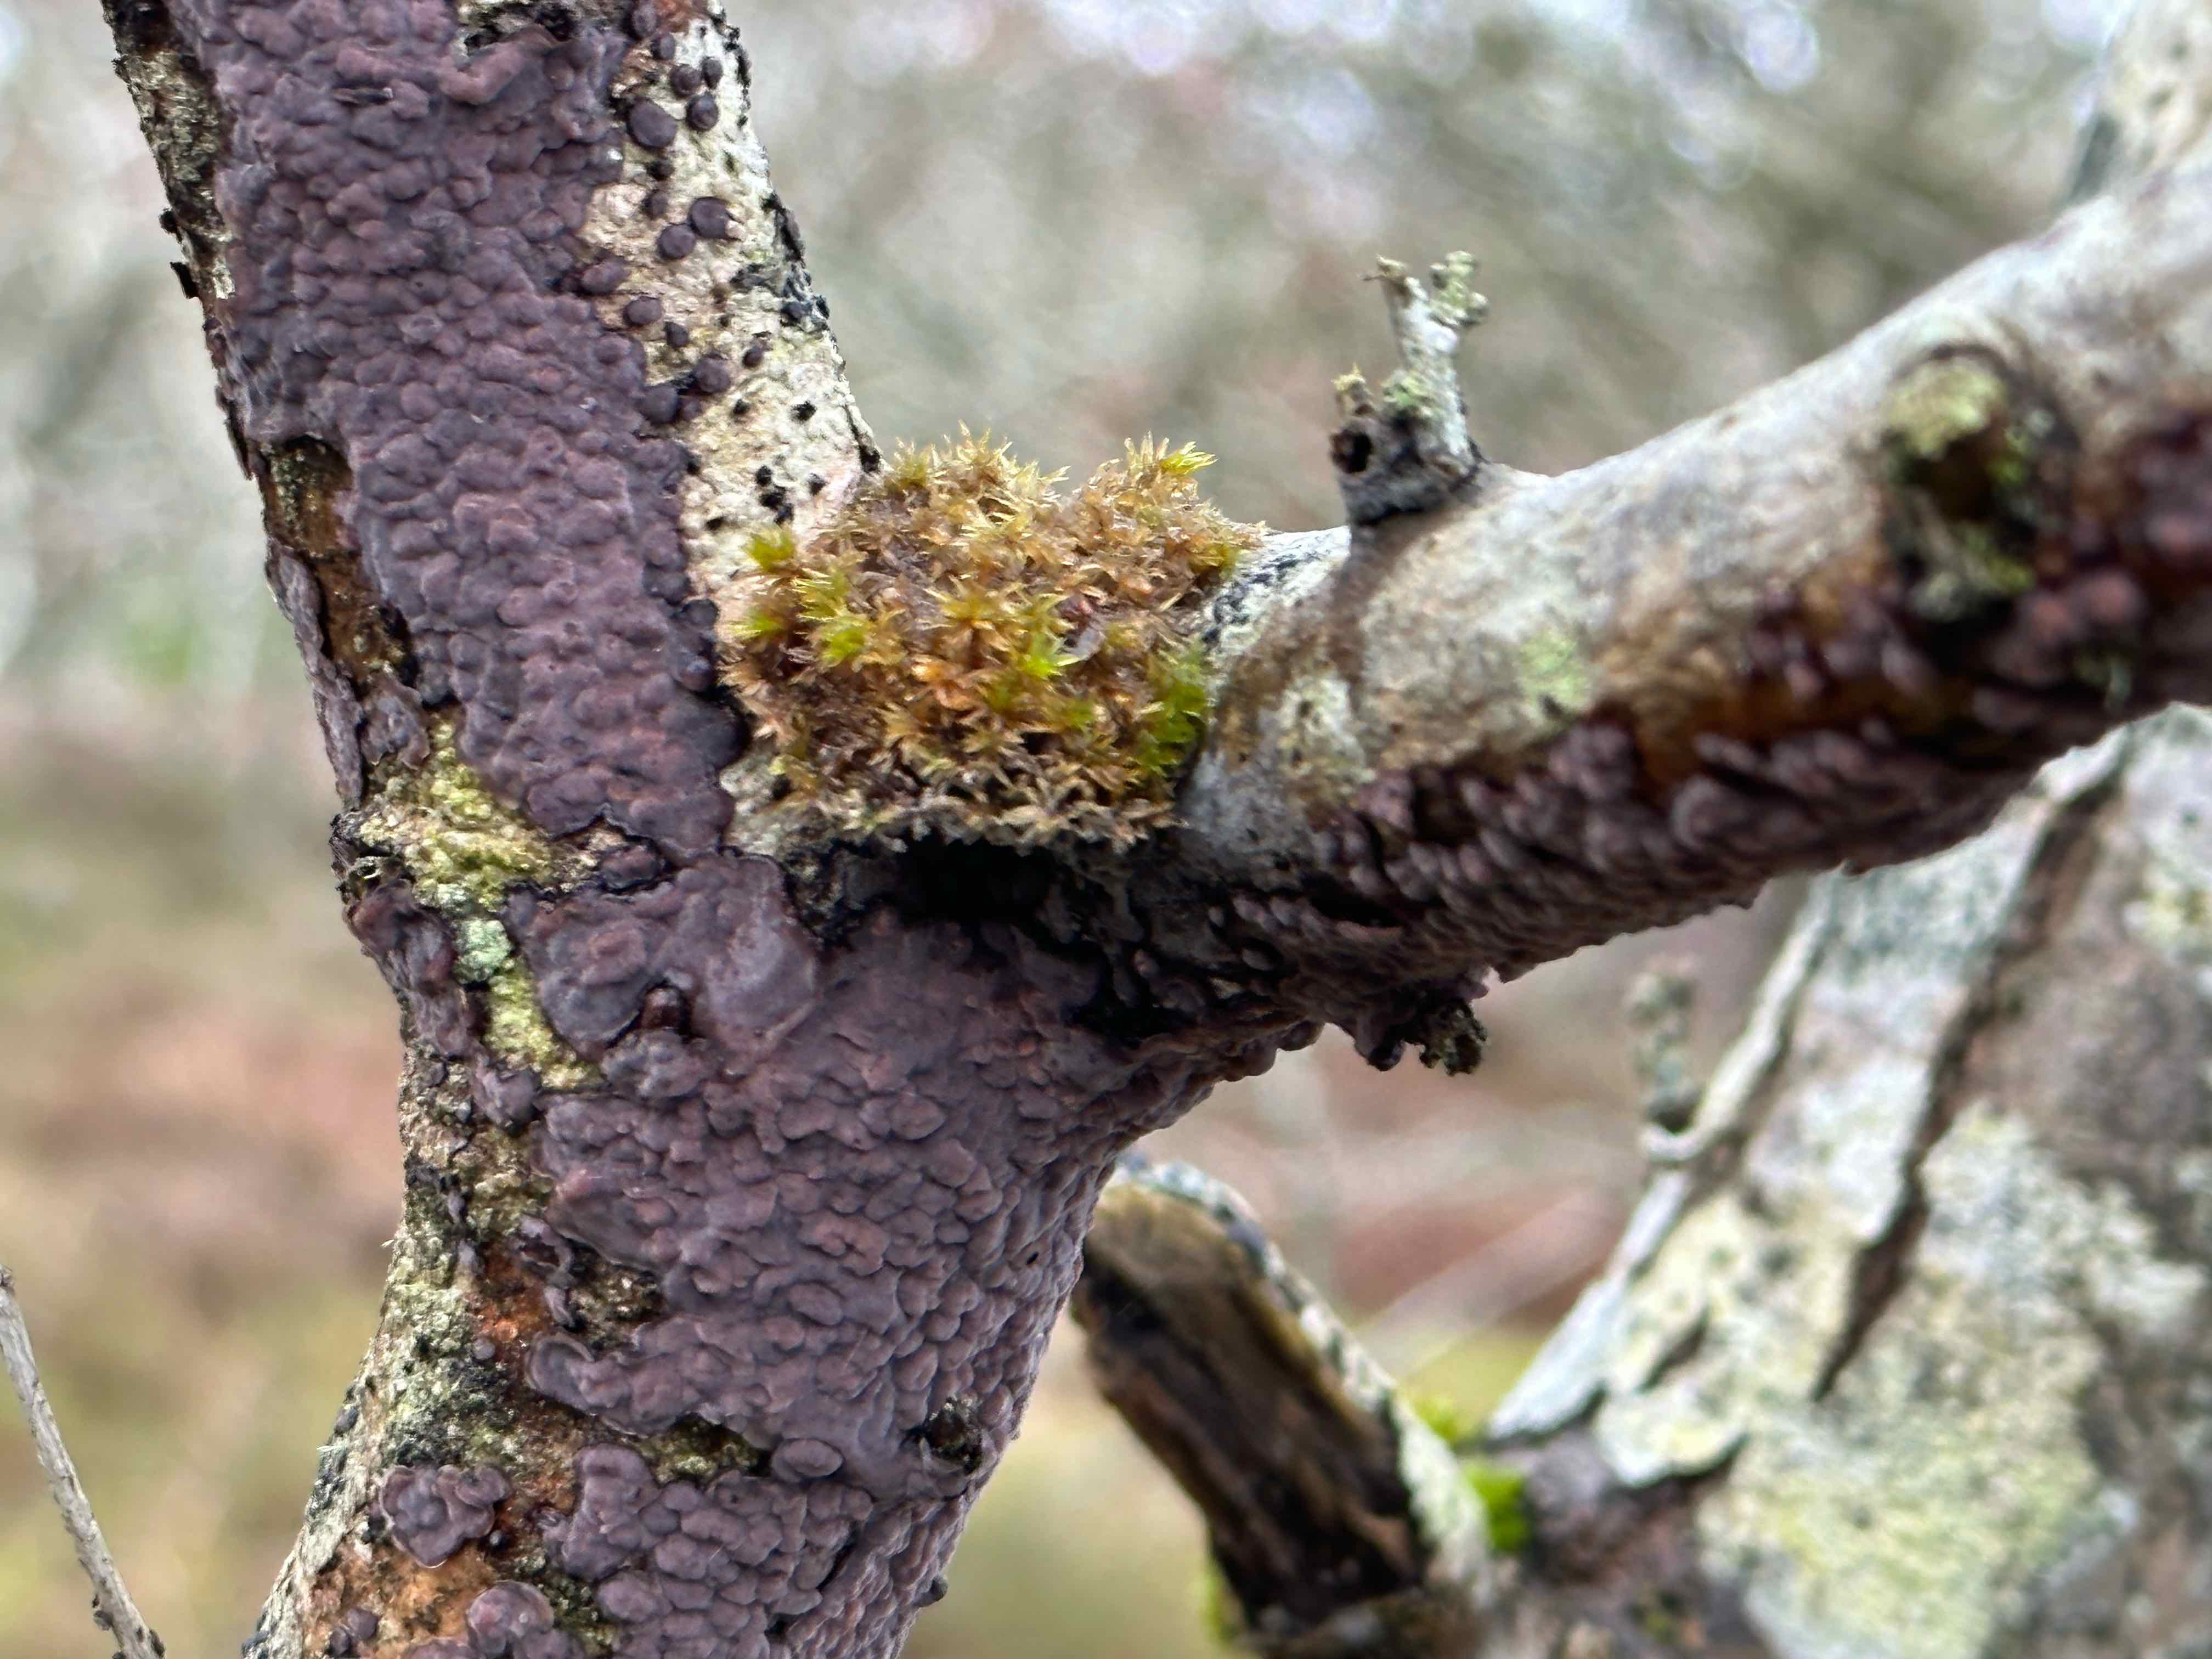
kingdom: Fungi
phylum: Basidiomycota
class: Agaricomycetes
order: Russulales
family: Peniophoraceae
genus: Peniophora
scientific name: Peniophora quercina
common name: ege-voksskind
